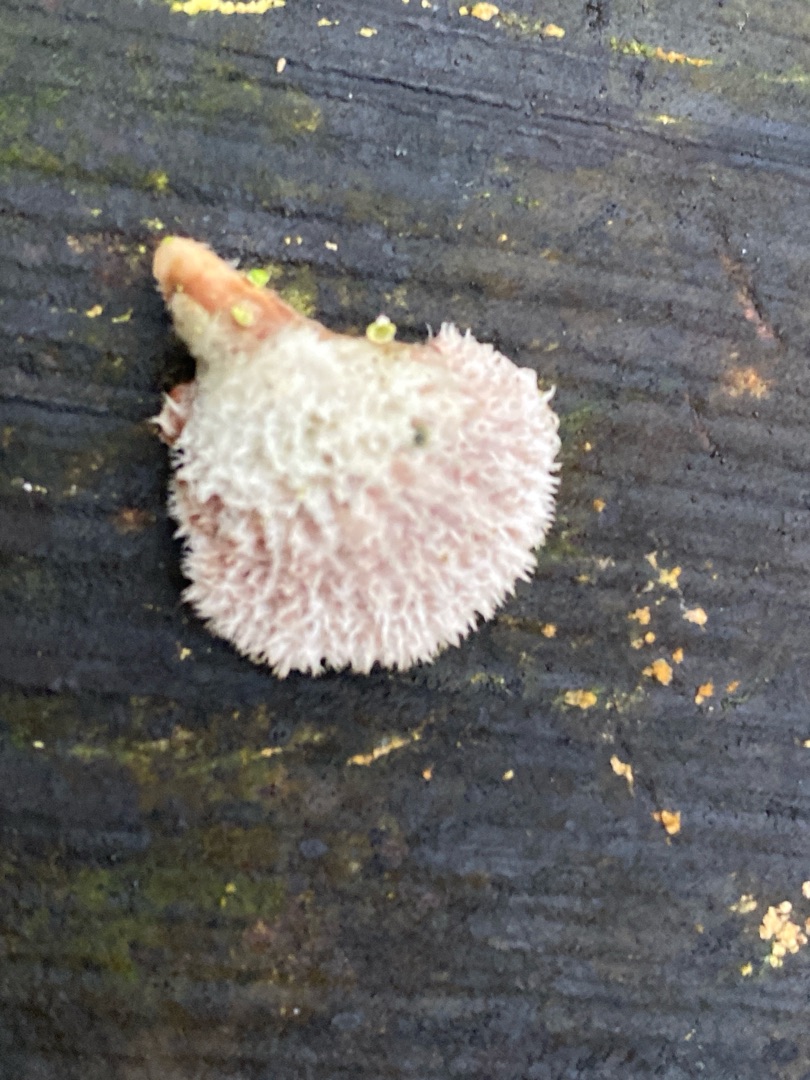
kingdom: Fungi
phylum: Basidiomycota
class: Agaricomycetes
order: Agaricales
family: Schizophyllaceae
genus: Schizophyllum
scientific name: Schizophyllum commune
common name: Kløvblad
